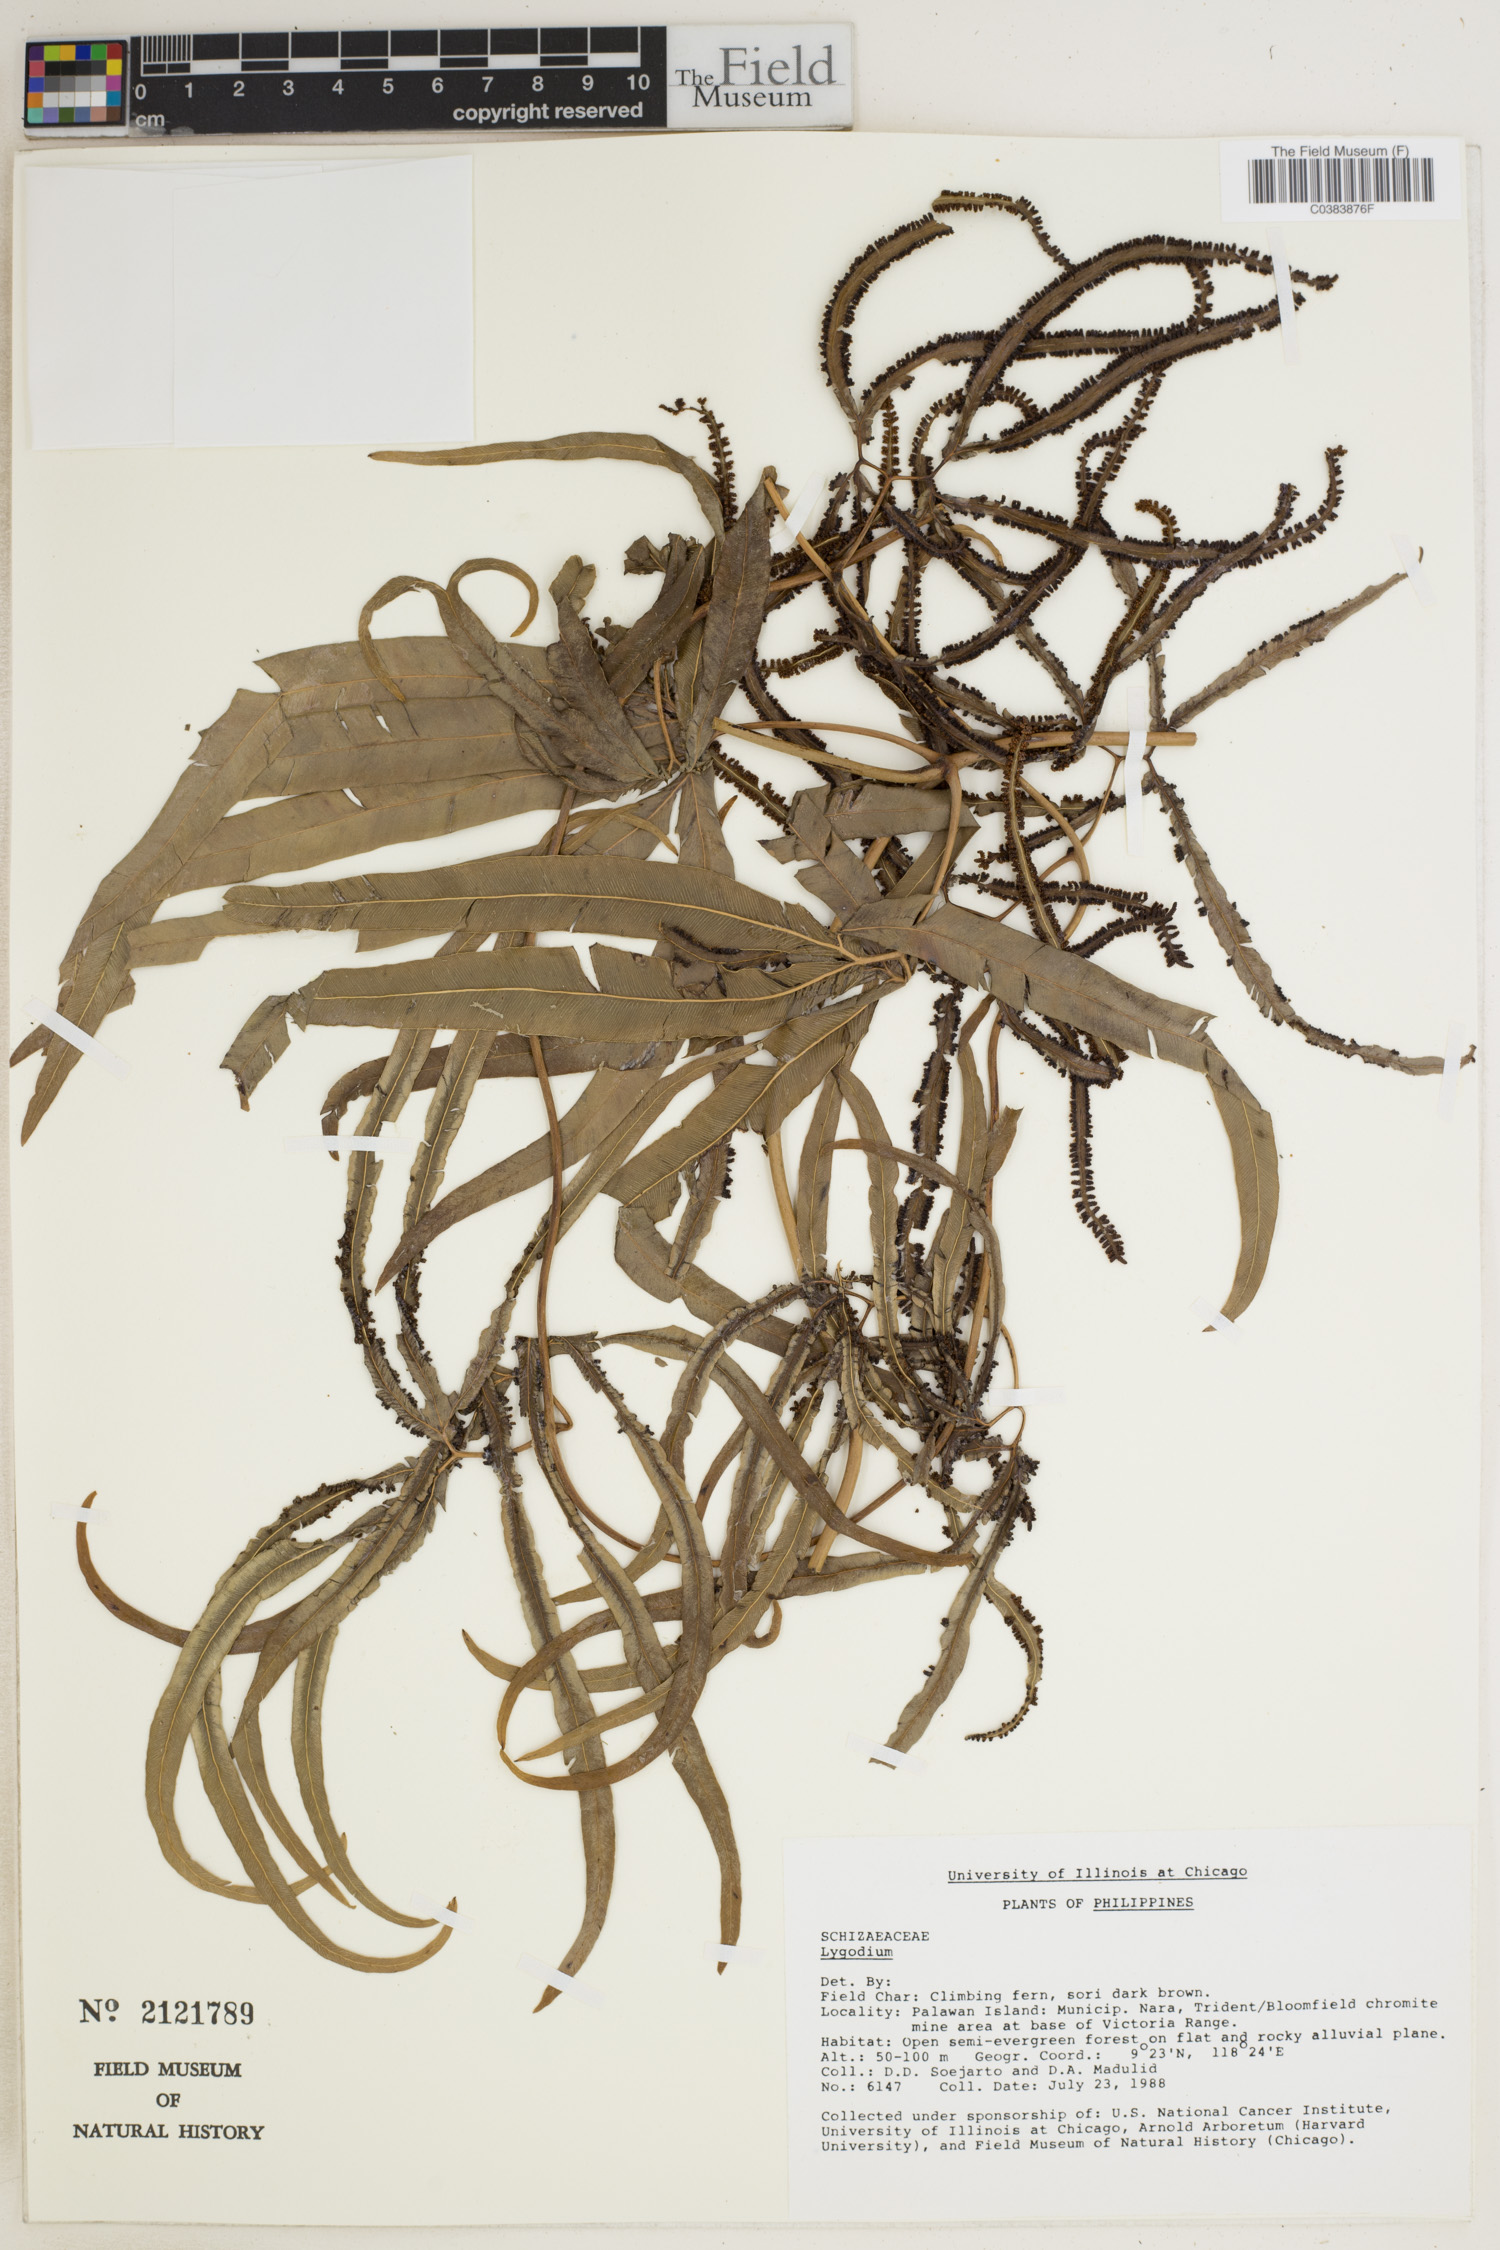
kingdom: Plantae
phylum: Tracheophyta
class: Polypodiopsida
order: Schizaeales
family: Schizaeaceae
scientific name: Schizaeaceae
